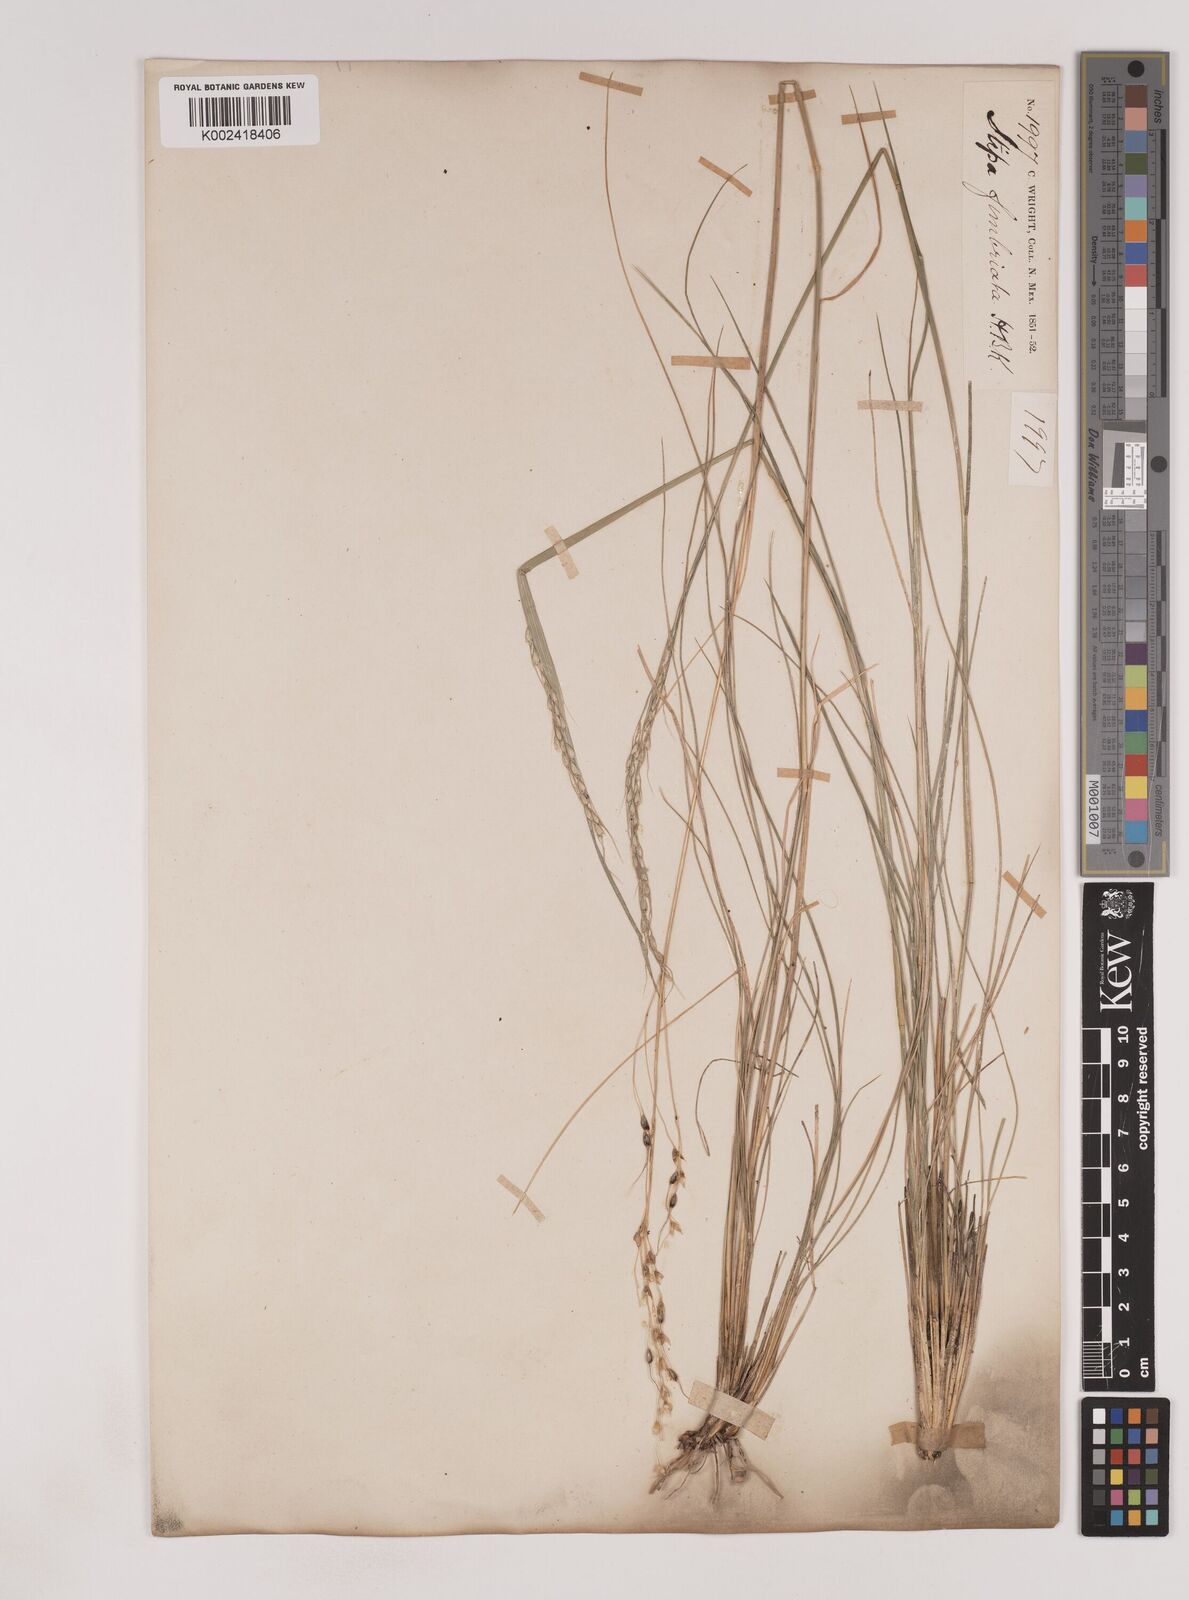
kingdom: Plantae
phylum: Tracheophyta
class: Liliopsida
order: Poales
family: Poaceae
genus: Piptochaetium
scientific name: Piptochaetium fimbriatum
